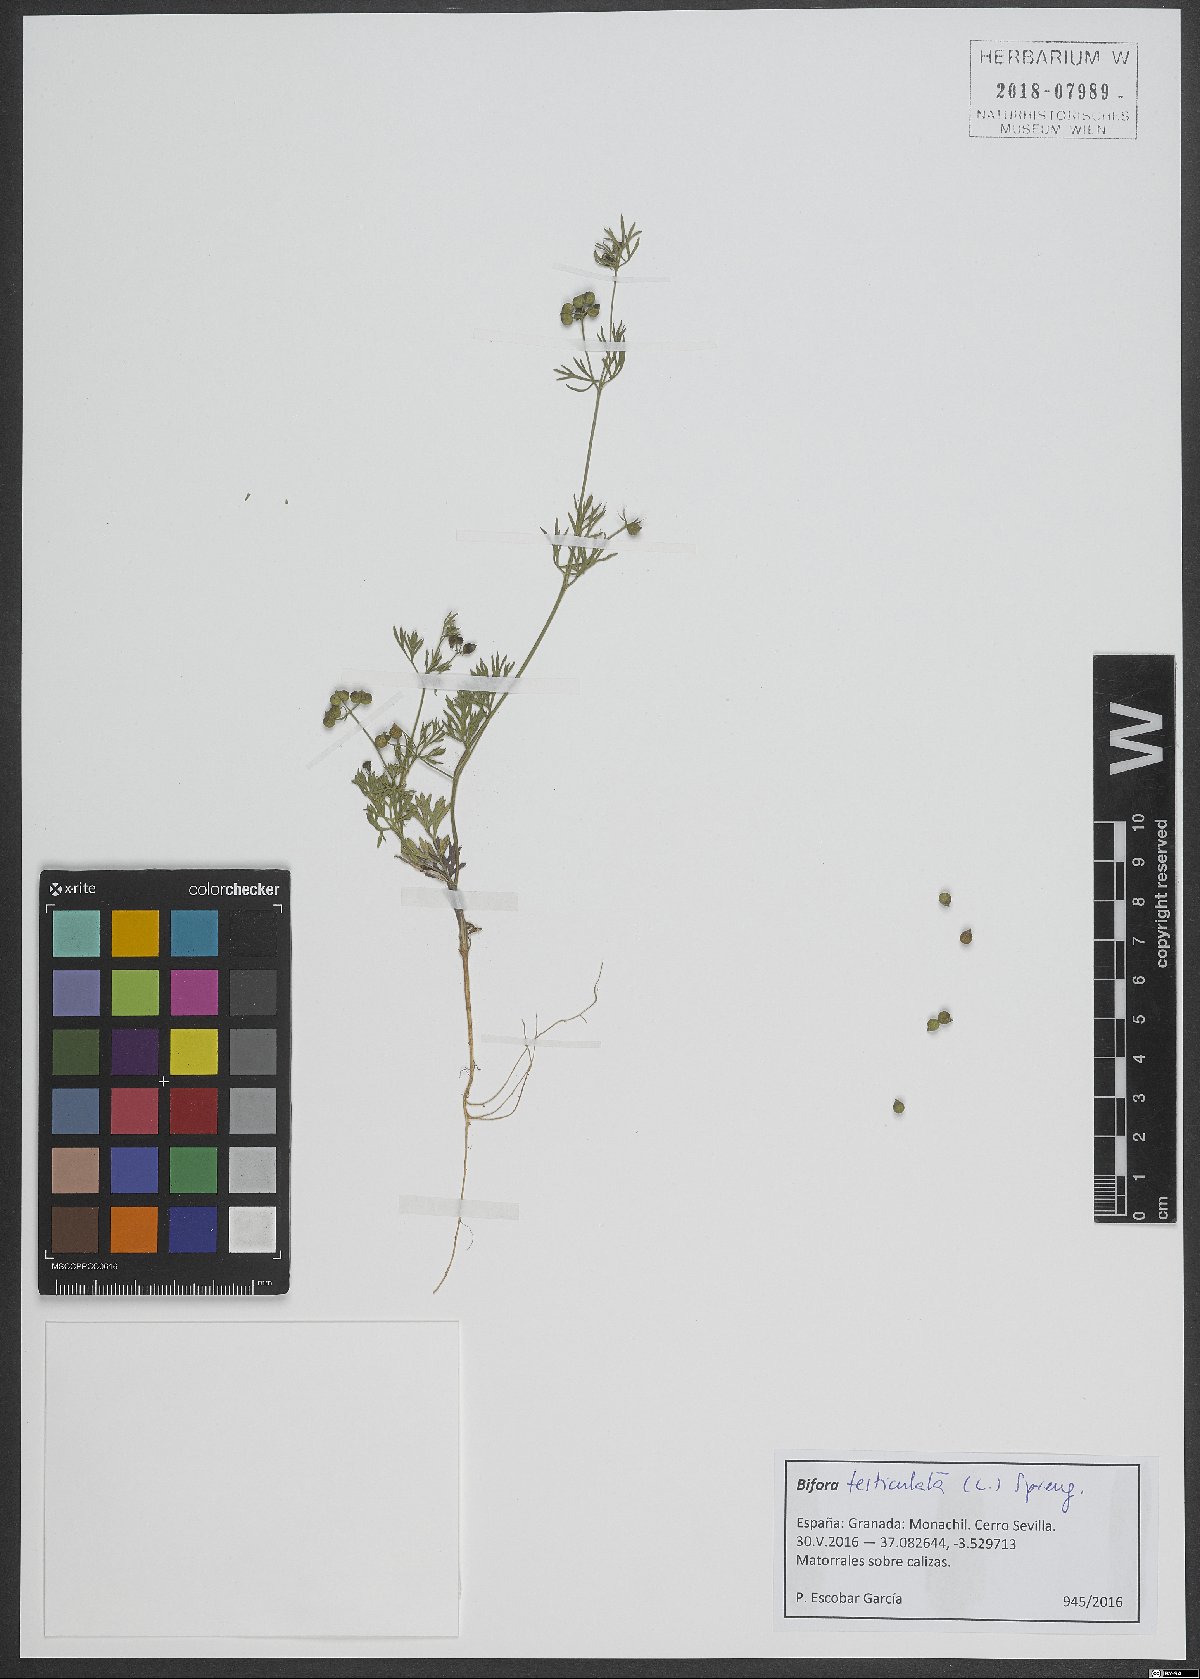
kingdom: Plantae
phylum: Tracheophyta
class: Magnoliopsida
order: Apiales
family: Apiaceae
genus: Bifora
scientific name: Bifora testiculata
